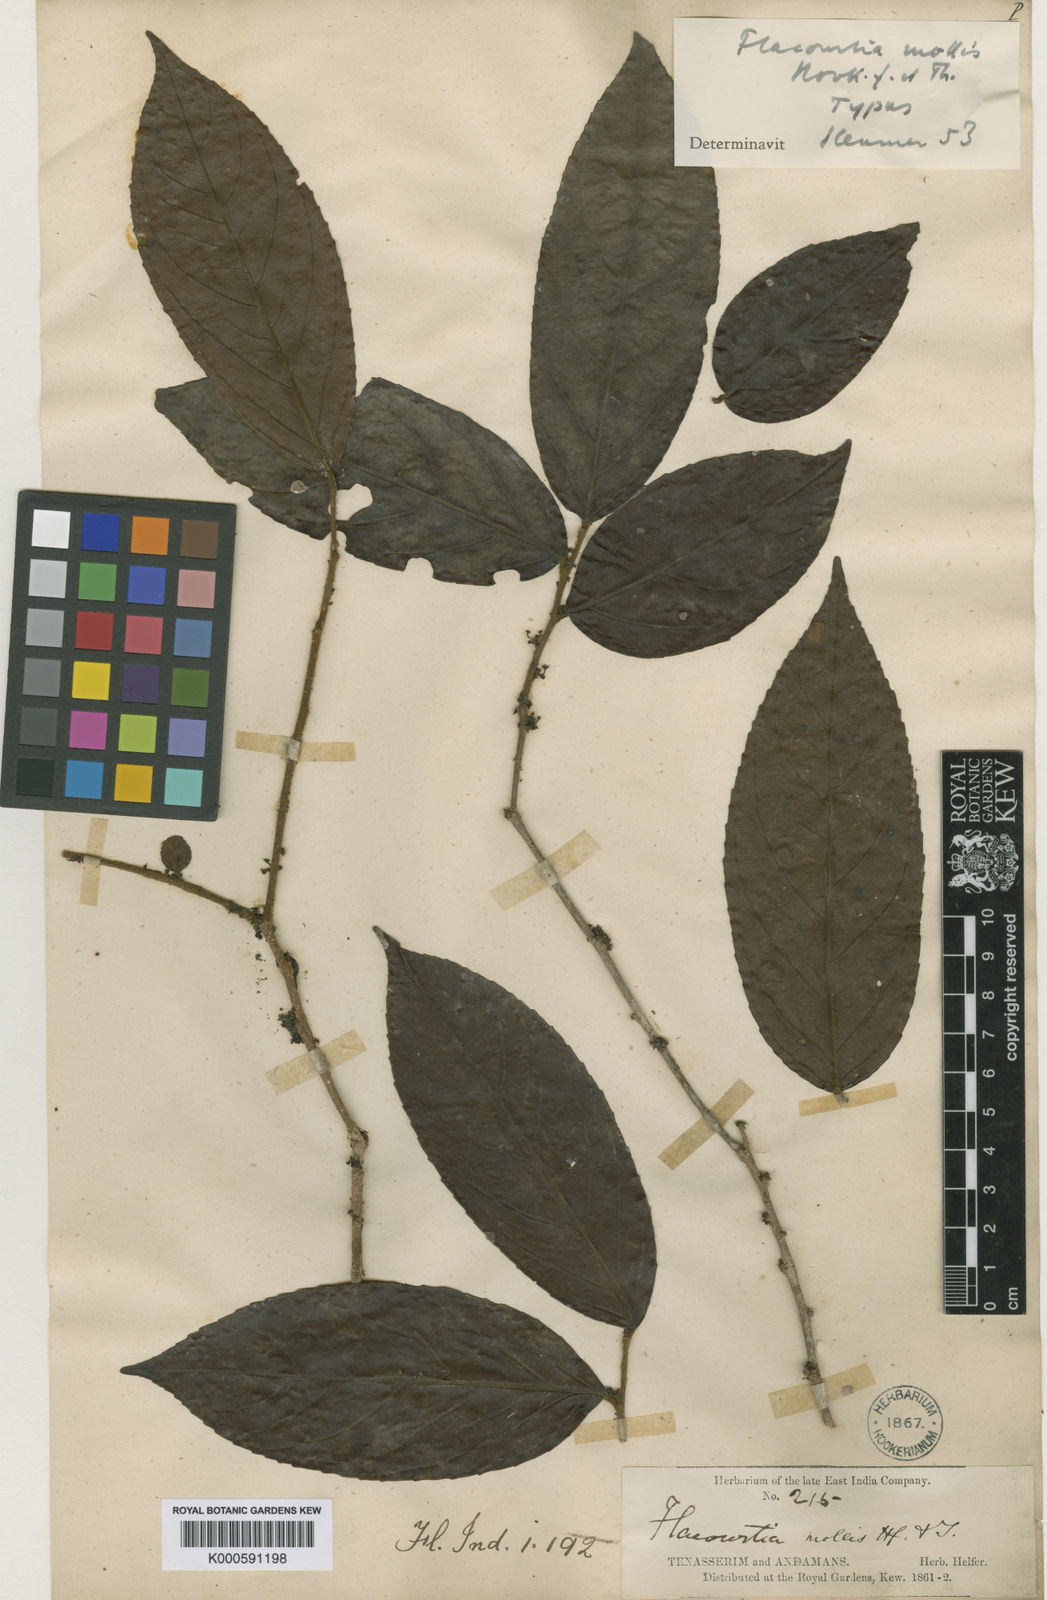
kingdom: Plantae
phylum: Tracheophyta
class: Magnoliopsida
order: Malpighiales
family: Salicaceae
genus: Flacourtia
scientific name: Flacourtia mollis
